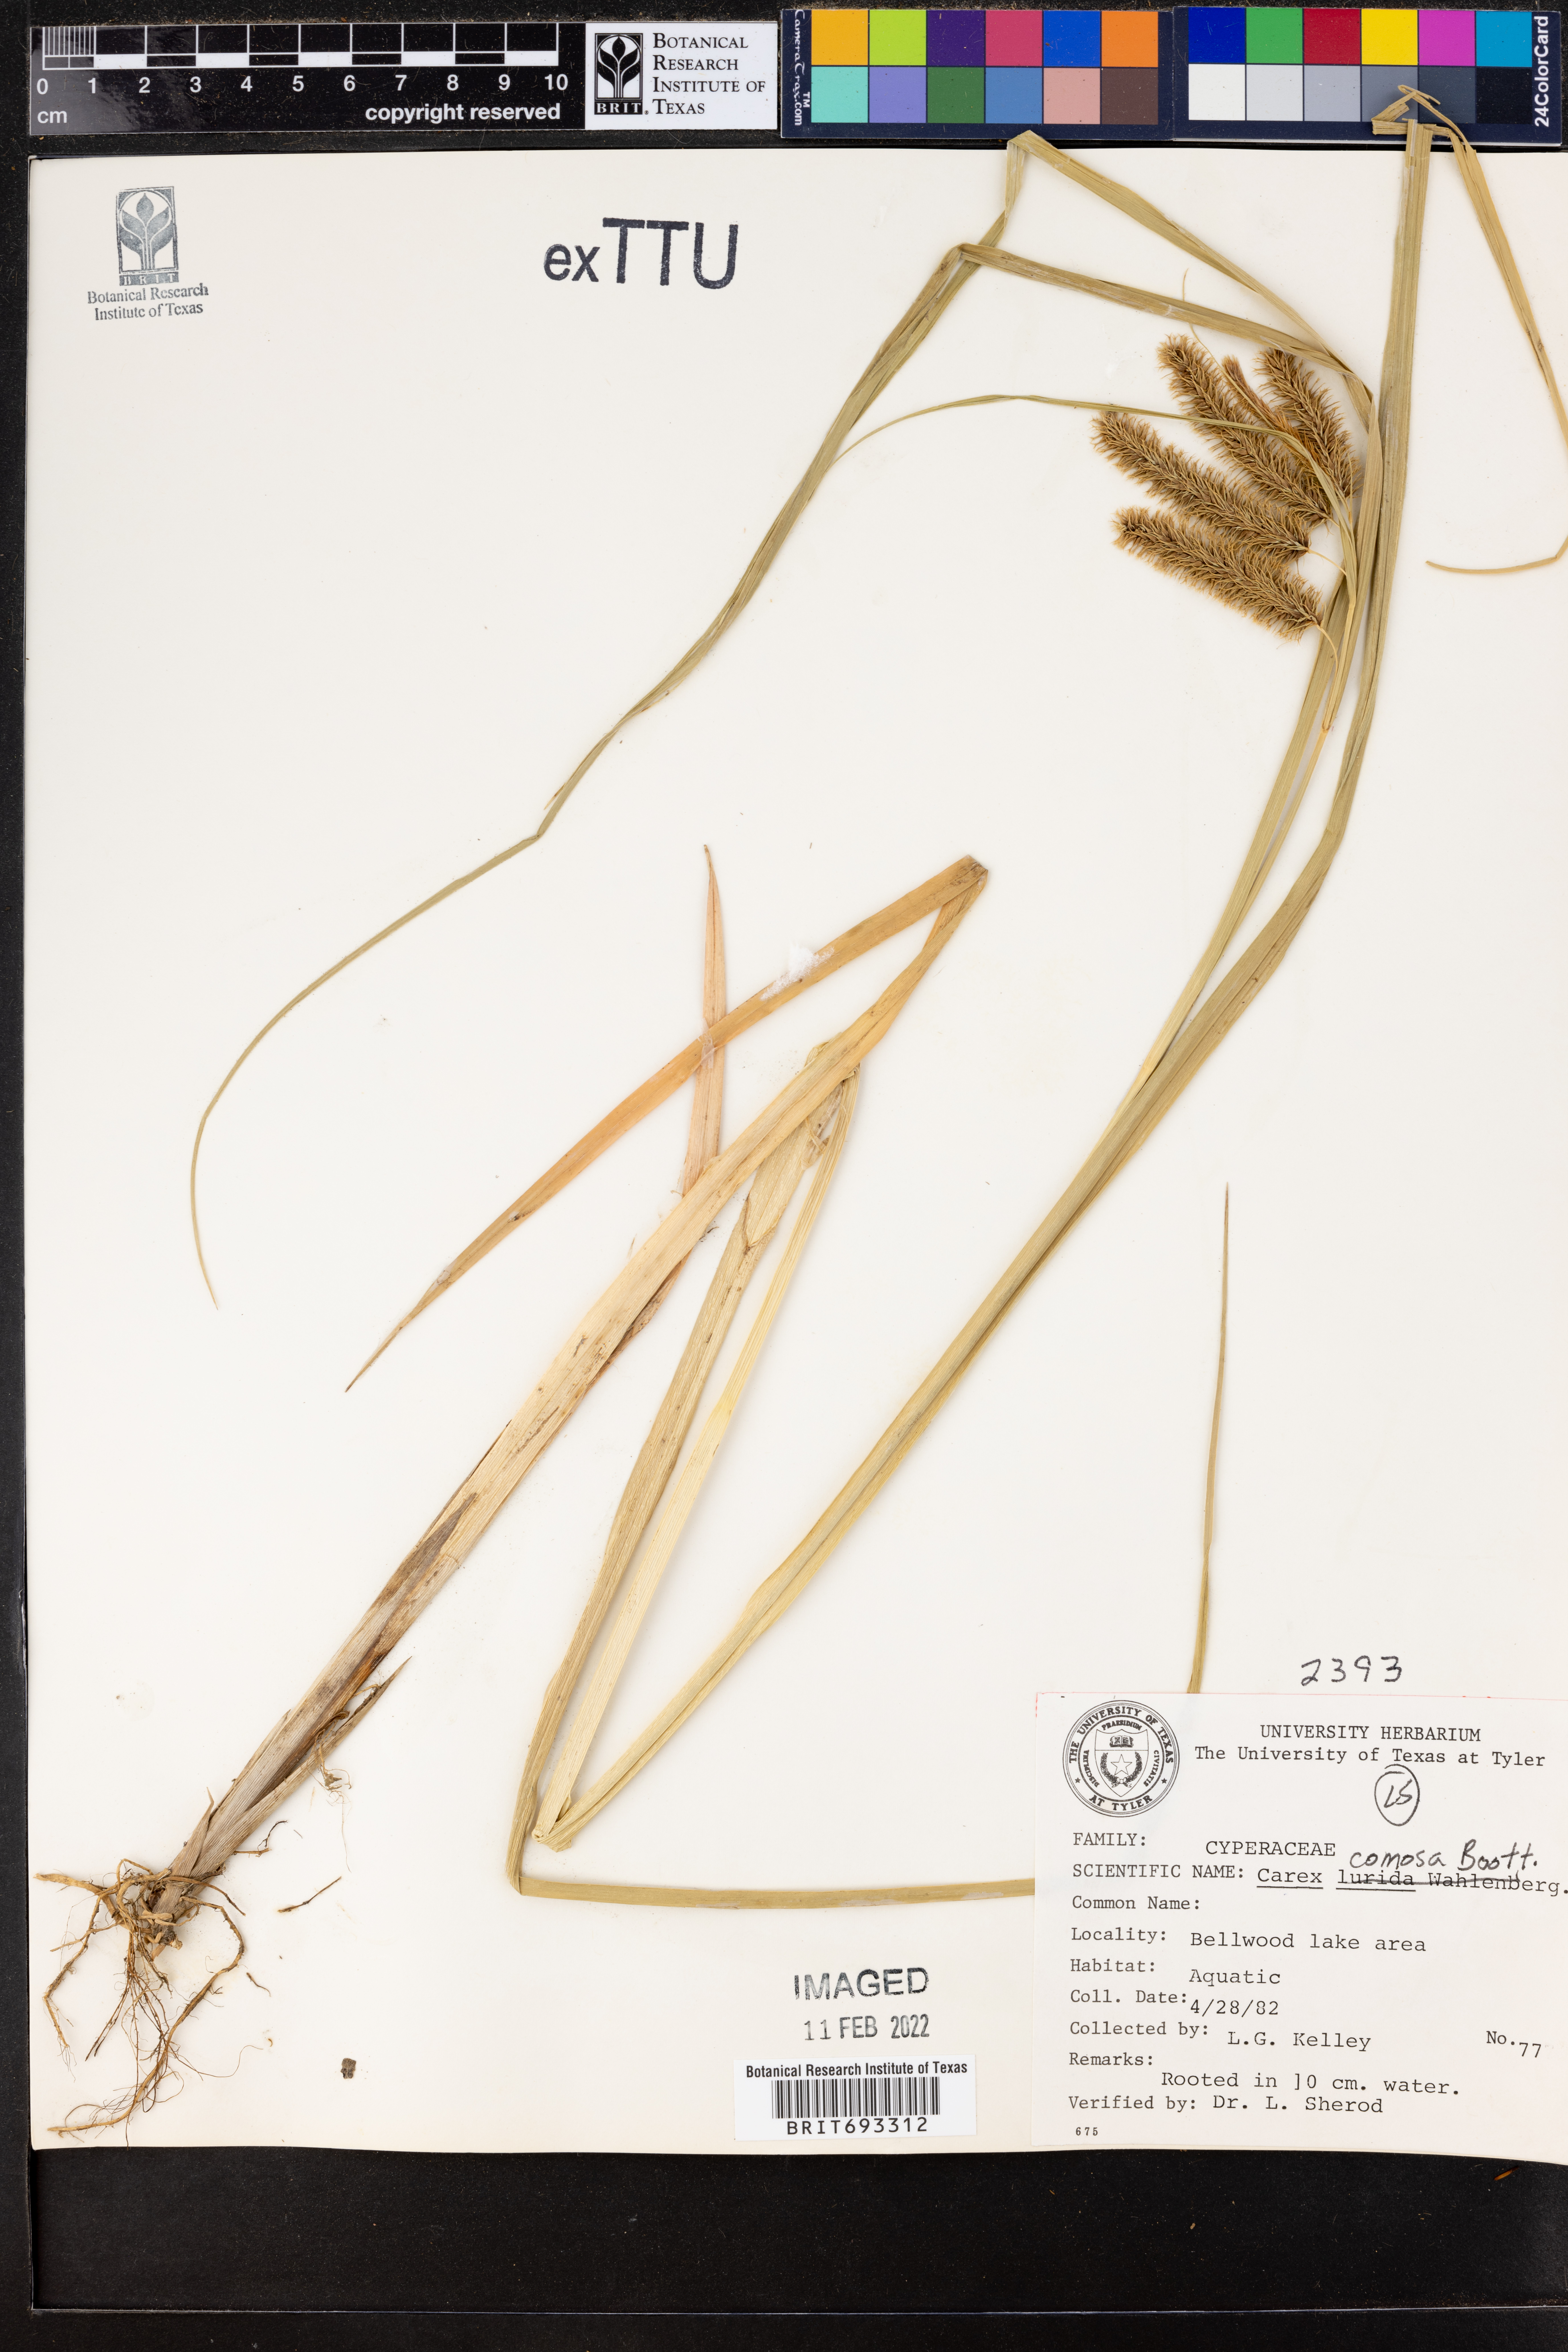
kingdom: Plantae
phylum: Tracheophyta
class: Liliopsida
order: Poales
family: Cyperaceae
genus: Carex
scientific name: Carex comosa
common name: Bristly sedge
